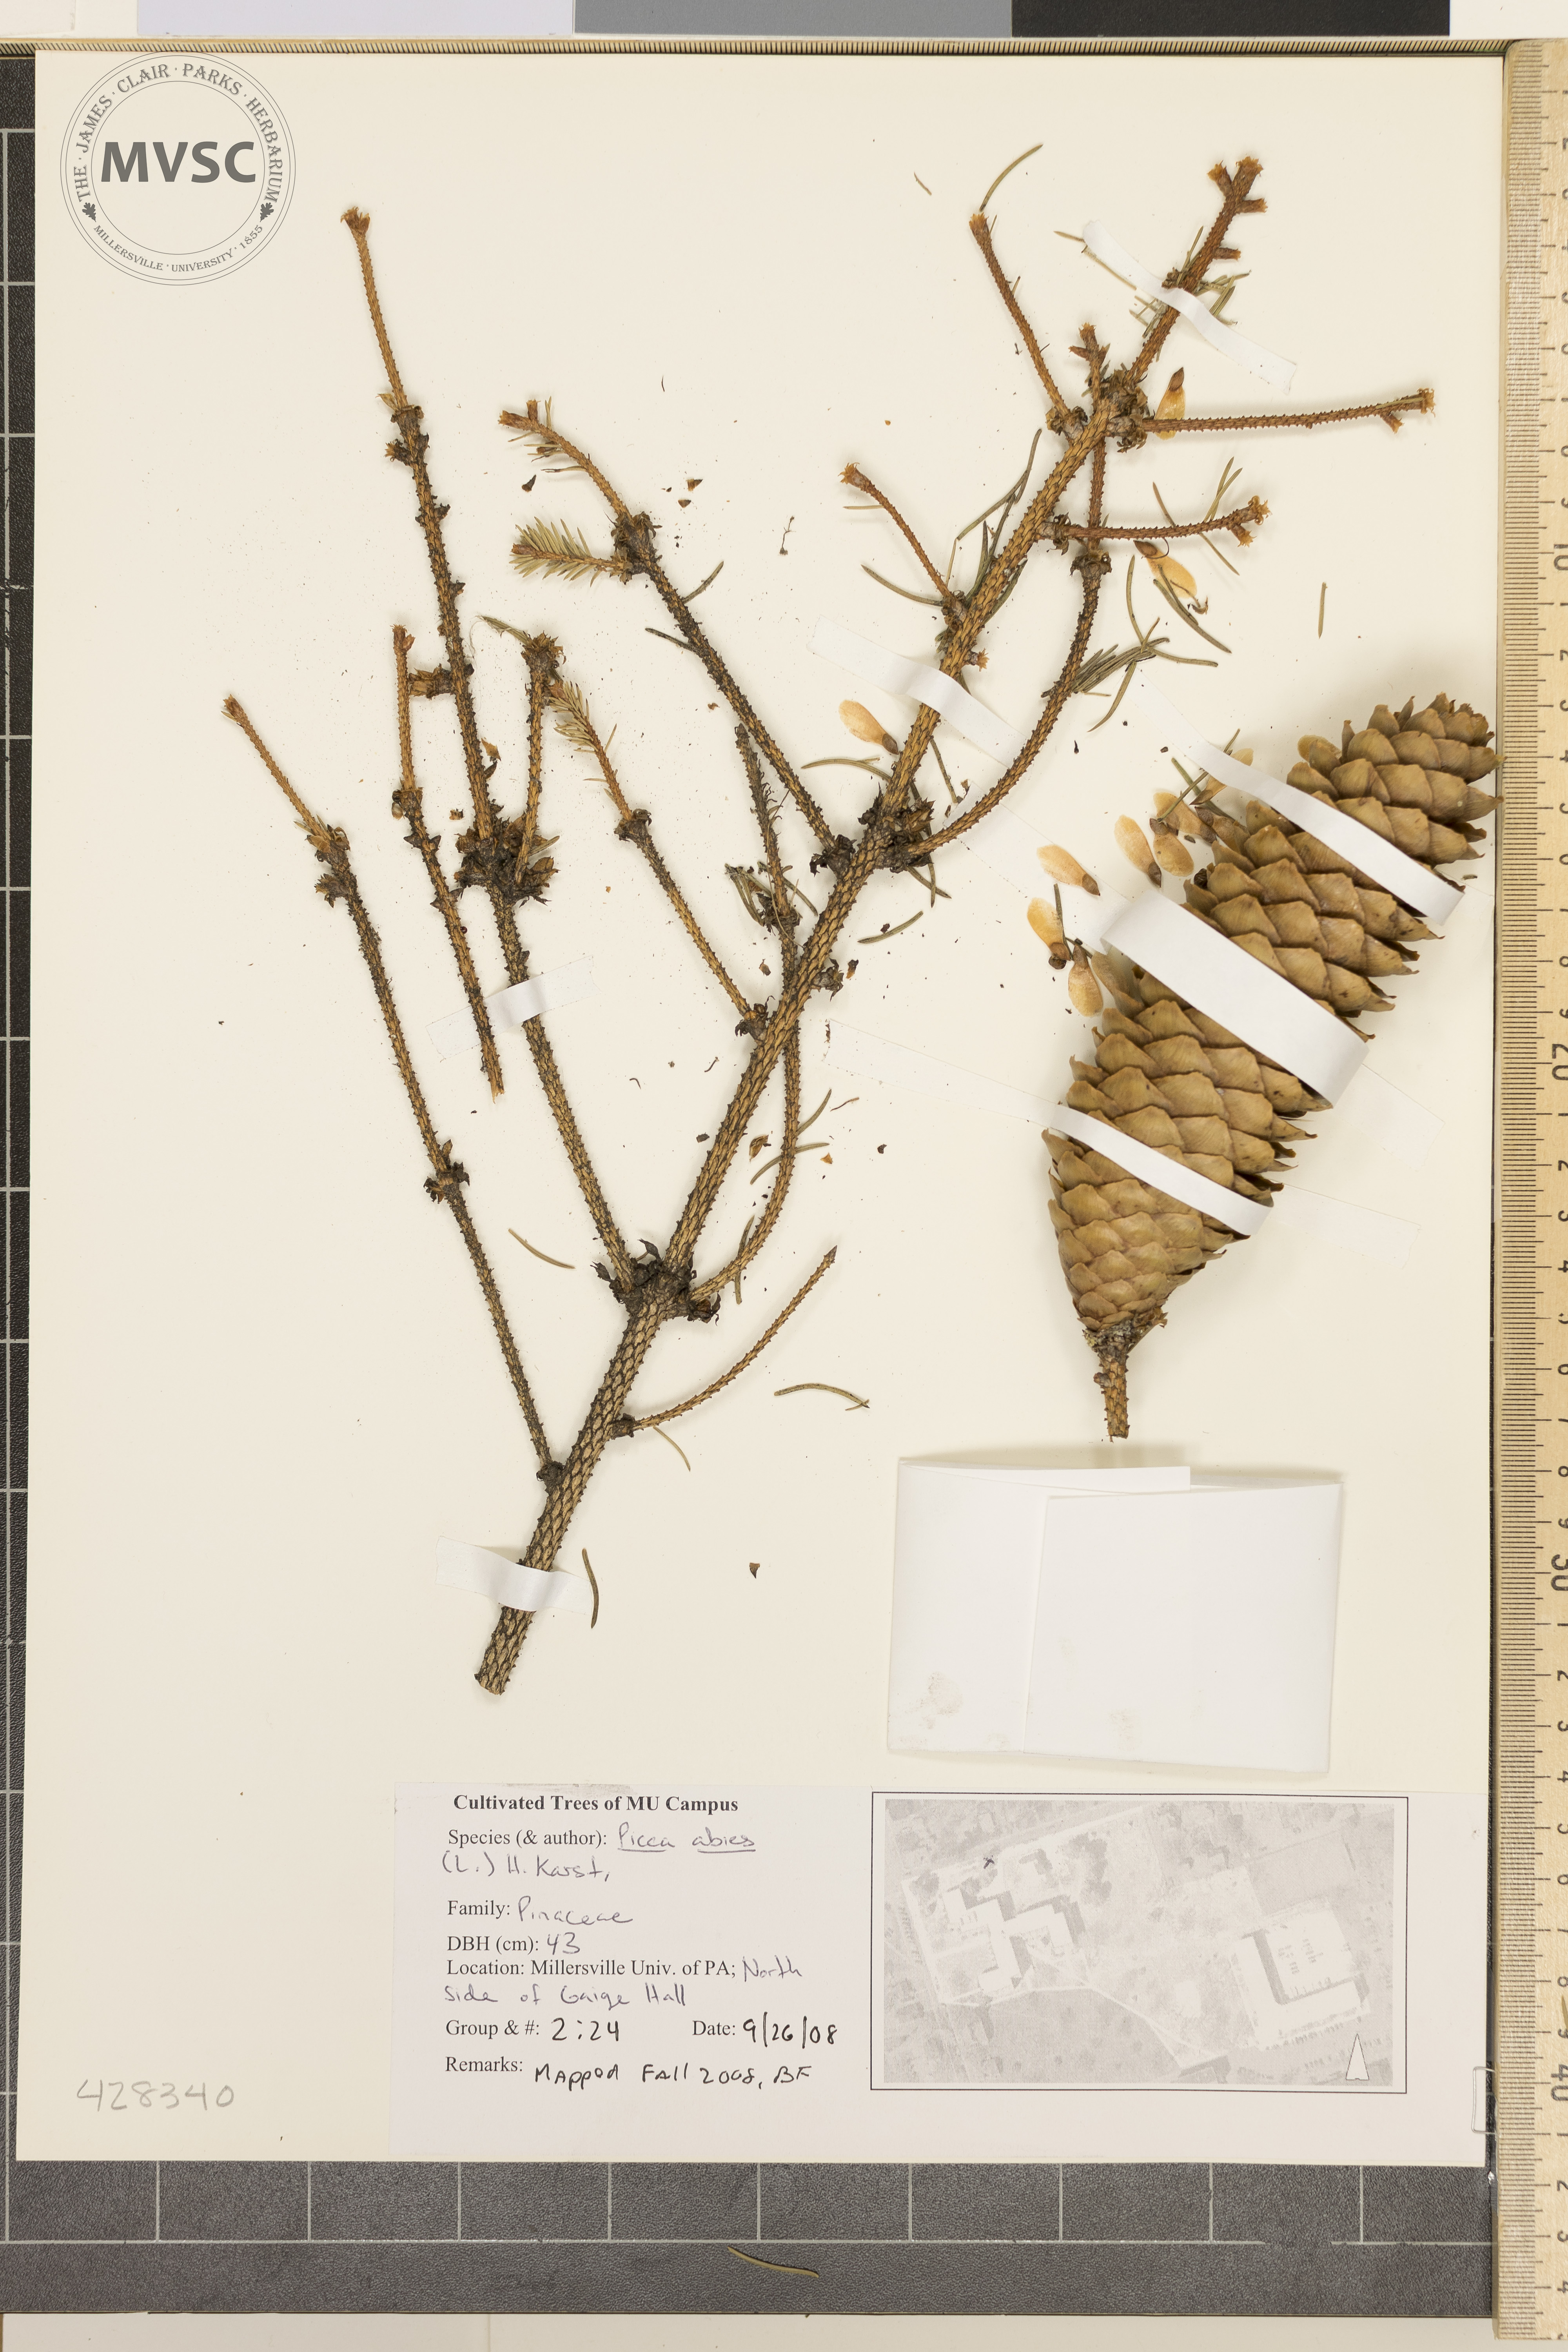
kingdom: Plantae
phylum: Tracheophyta
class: Pinopsida
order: Pinales
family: Pinaceae
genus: Picea
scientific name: Picea abies
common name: Norway Spruce
